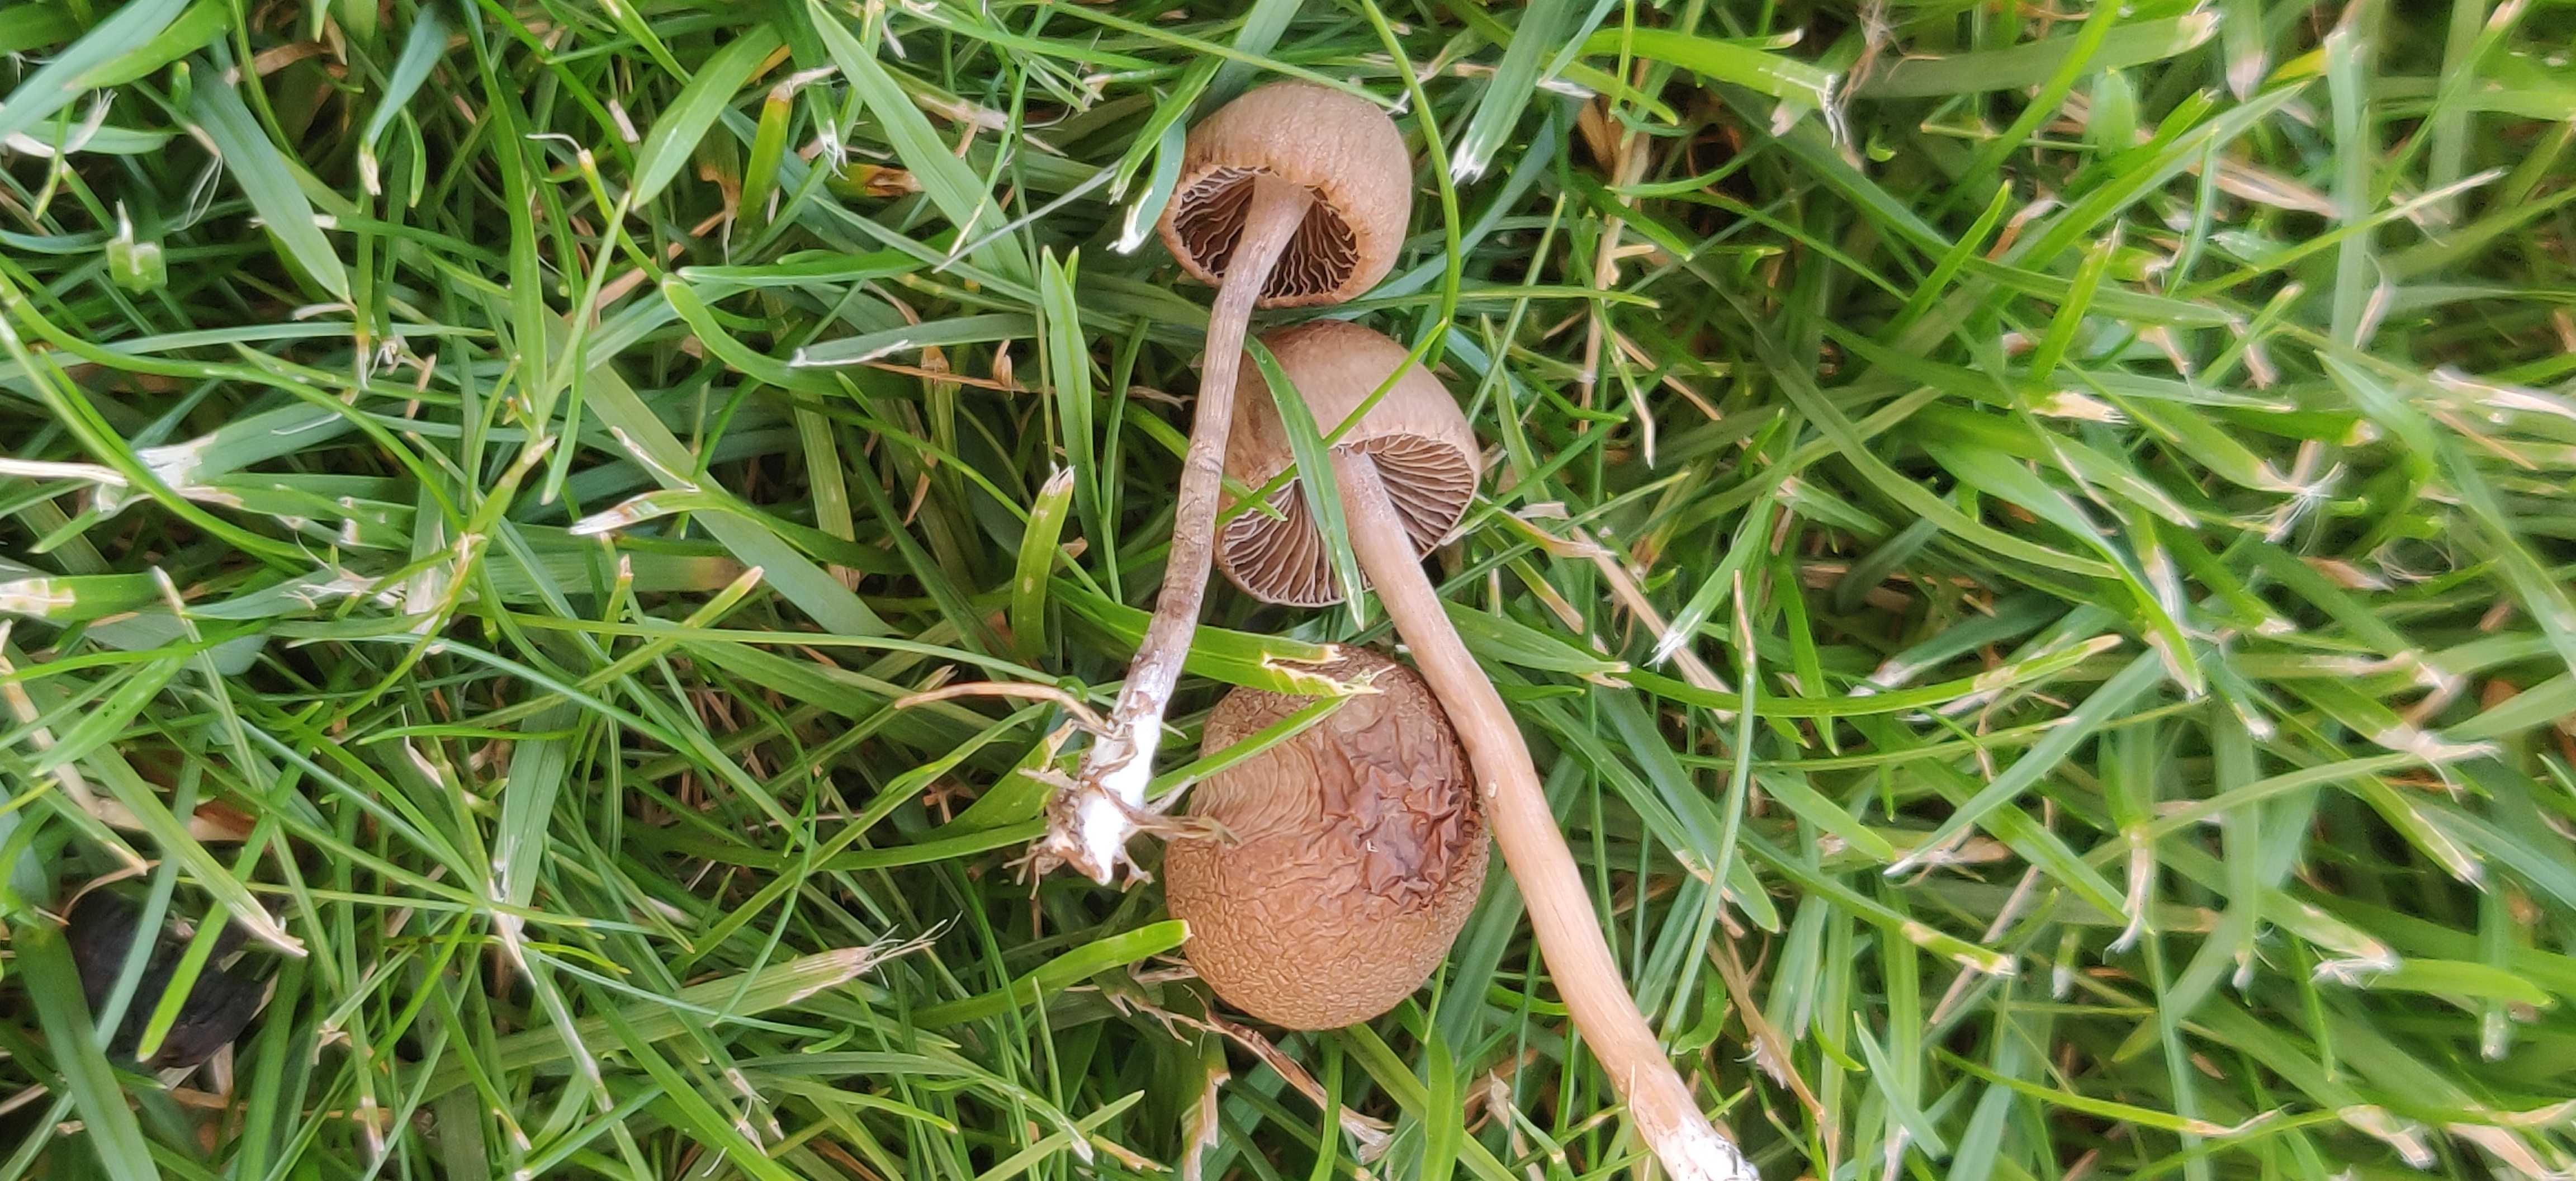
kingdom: Fungi
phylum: Basidiomycota
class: Agaricomycetes
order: Agaricales
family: Bolbitiaceae
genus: Panaeolina
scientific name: Panaeolina foenisecii
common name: høslætsvamp
